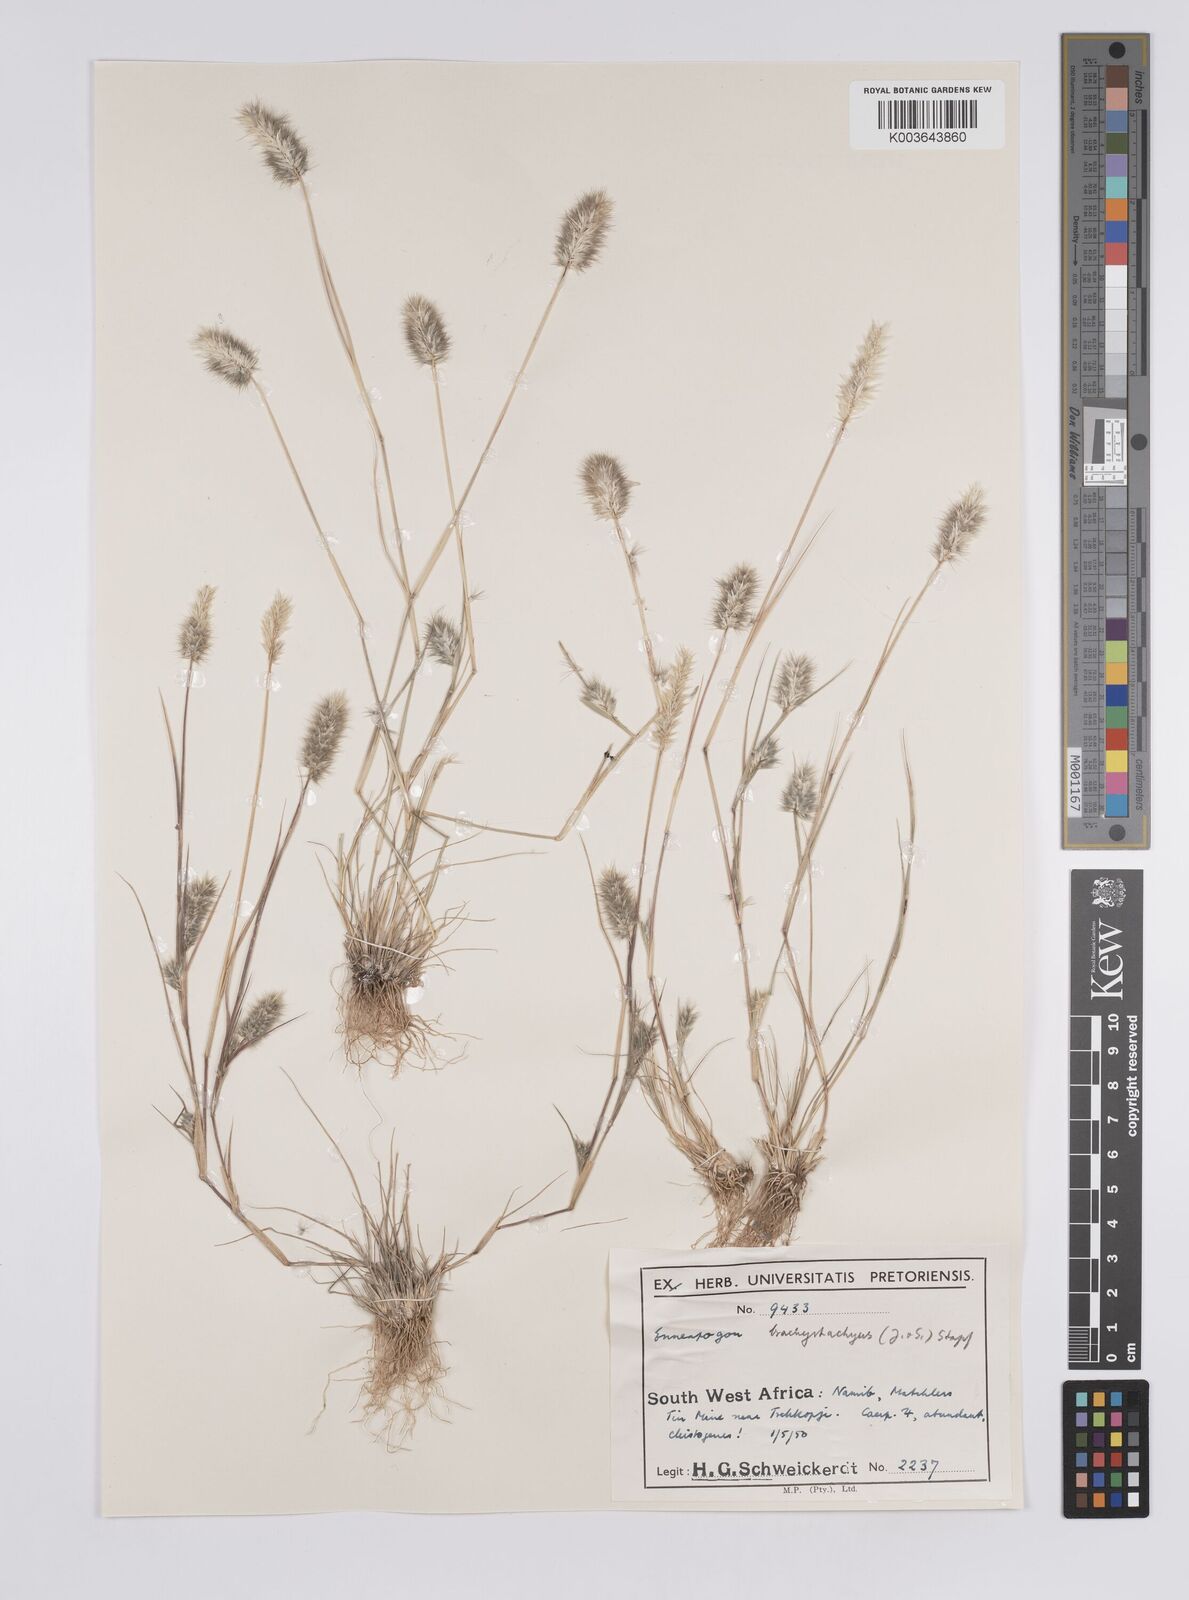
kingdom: Plantae
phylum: Tracheophyta
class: Liliopsida
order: Poales
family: Poaceae
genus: Enneapogon
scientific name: Enneapogon desvauxii
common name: Feather pappus grass
